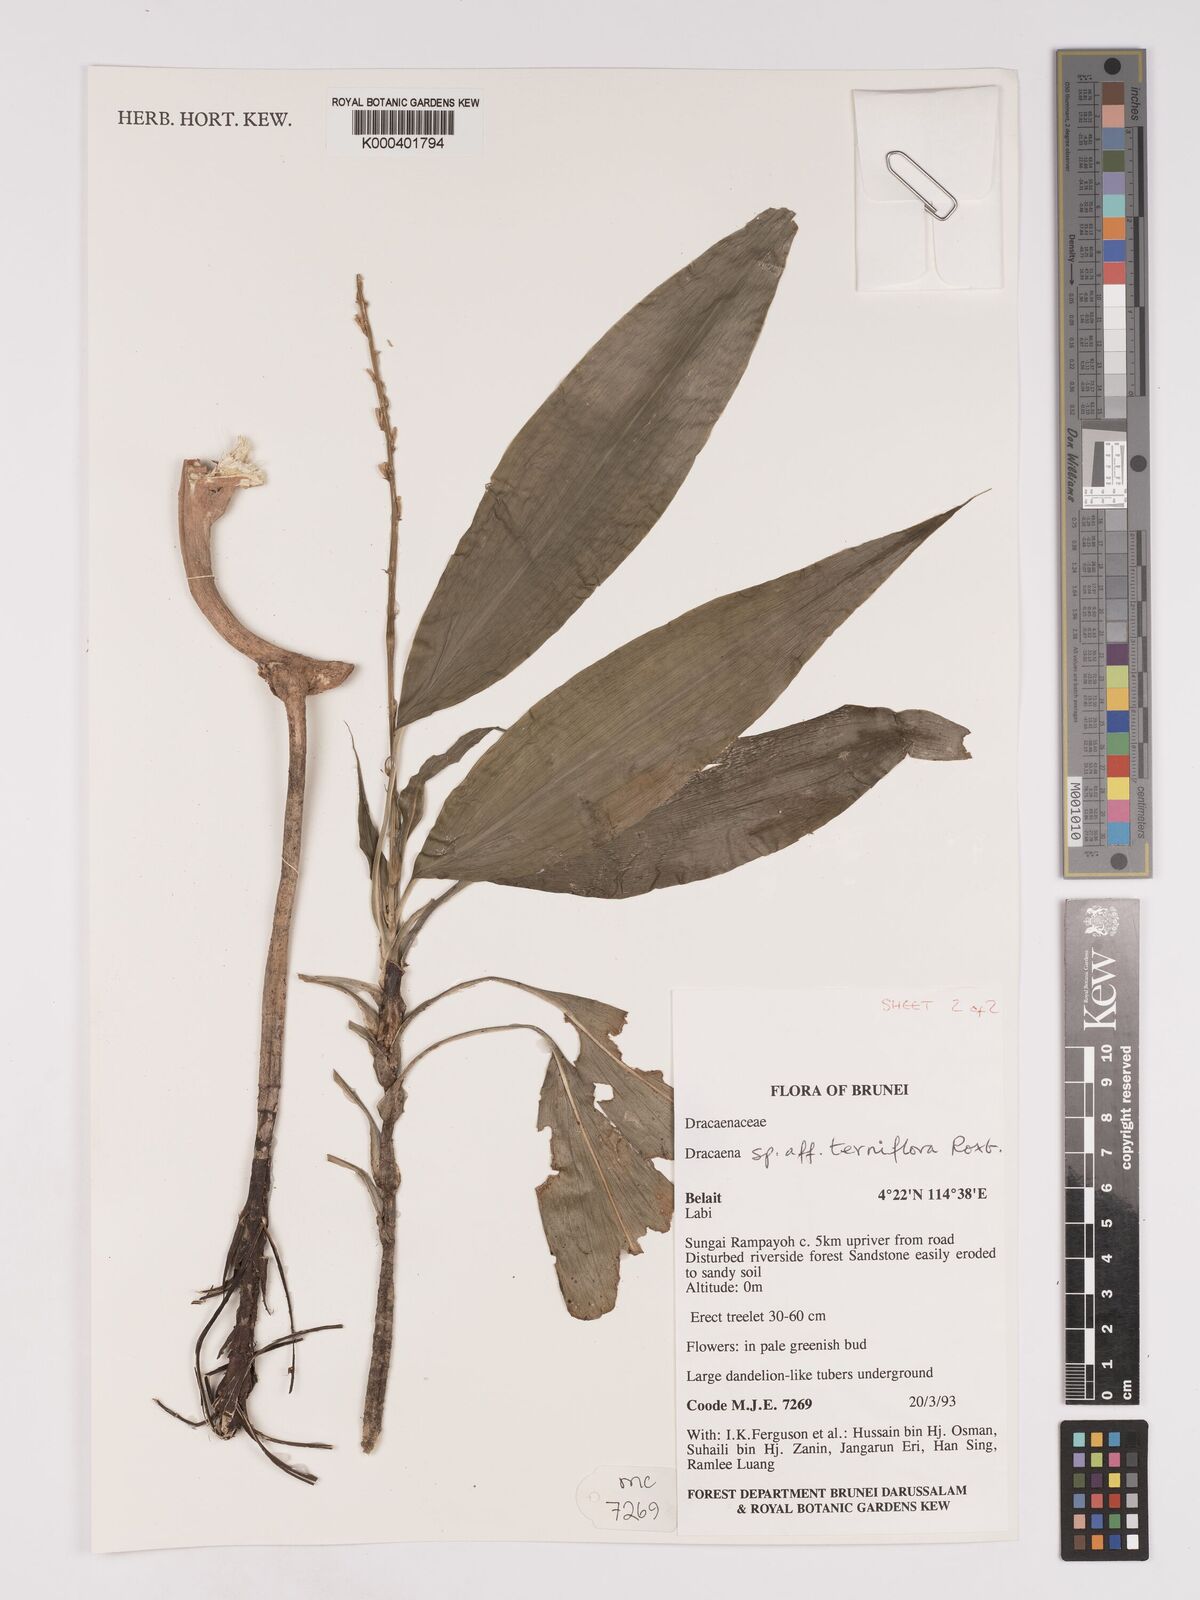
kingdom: Plantae
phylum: Tracheophyta
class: Liliopsida
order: Asparagales
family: Asparagaceae
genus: Dracaena
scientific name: Dracaena terniflora
